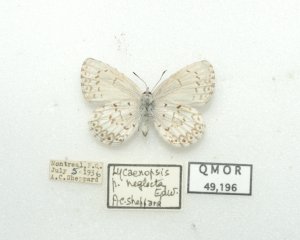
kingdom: Animalia
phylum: Arthropoda
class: Insecta
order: Lepidoptera
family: Lycaenidae
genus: Cyaniris
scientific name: Cyaniris neglecta
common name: Summer Azure
